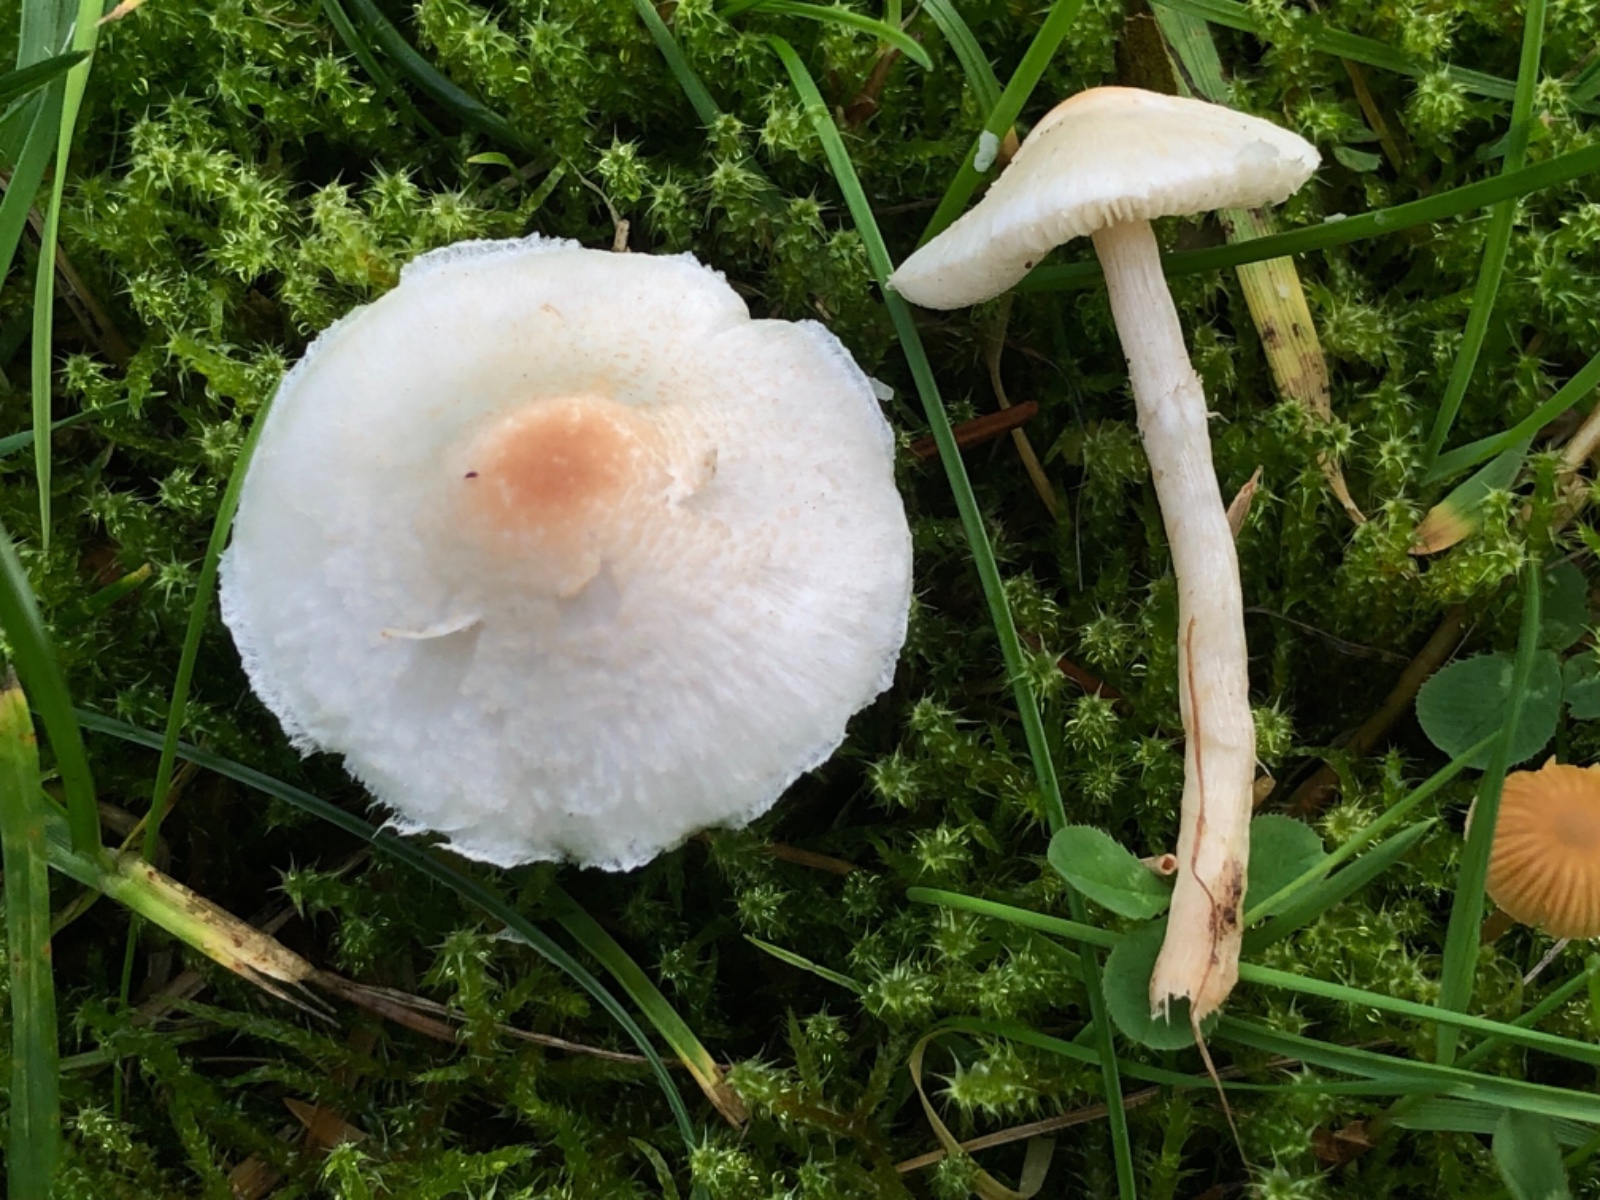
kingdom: Fungi
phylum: Basidiomycota
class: Agaricomycetes
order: Agaricales
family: Agaricaceae
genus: Lepiota
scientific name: Lepiota
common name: parasolhat
